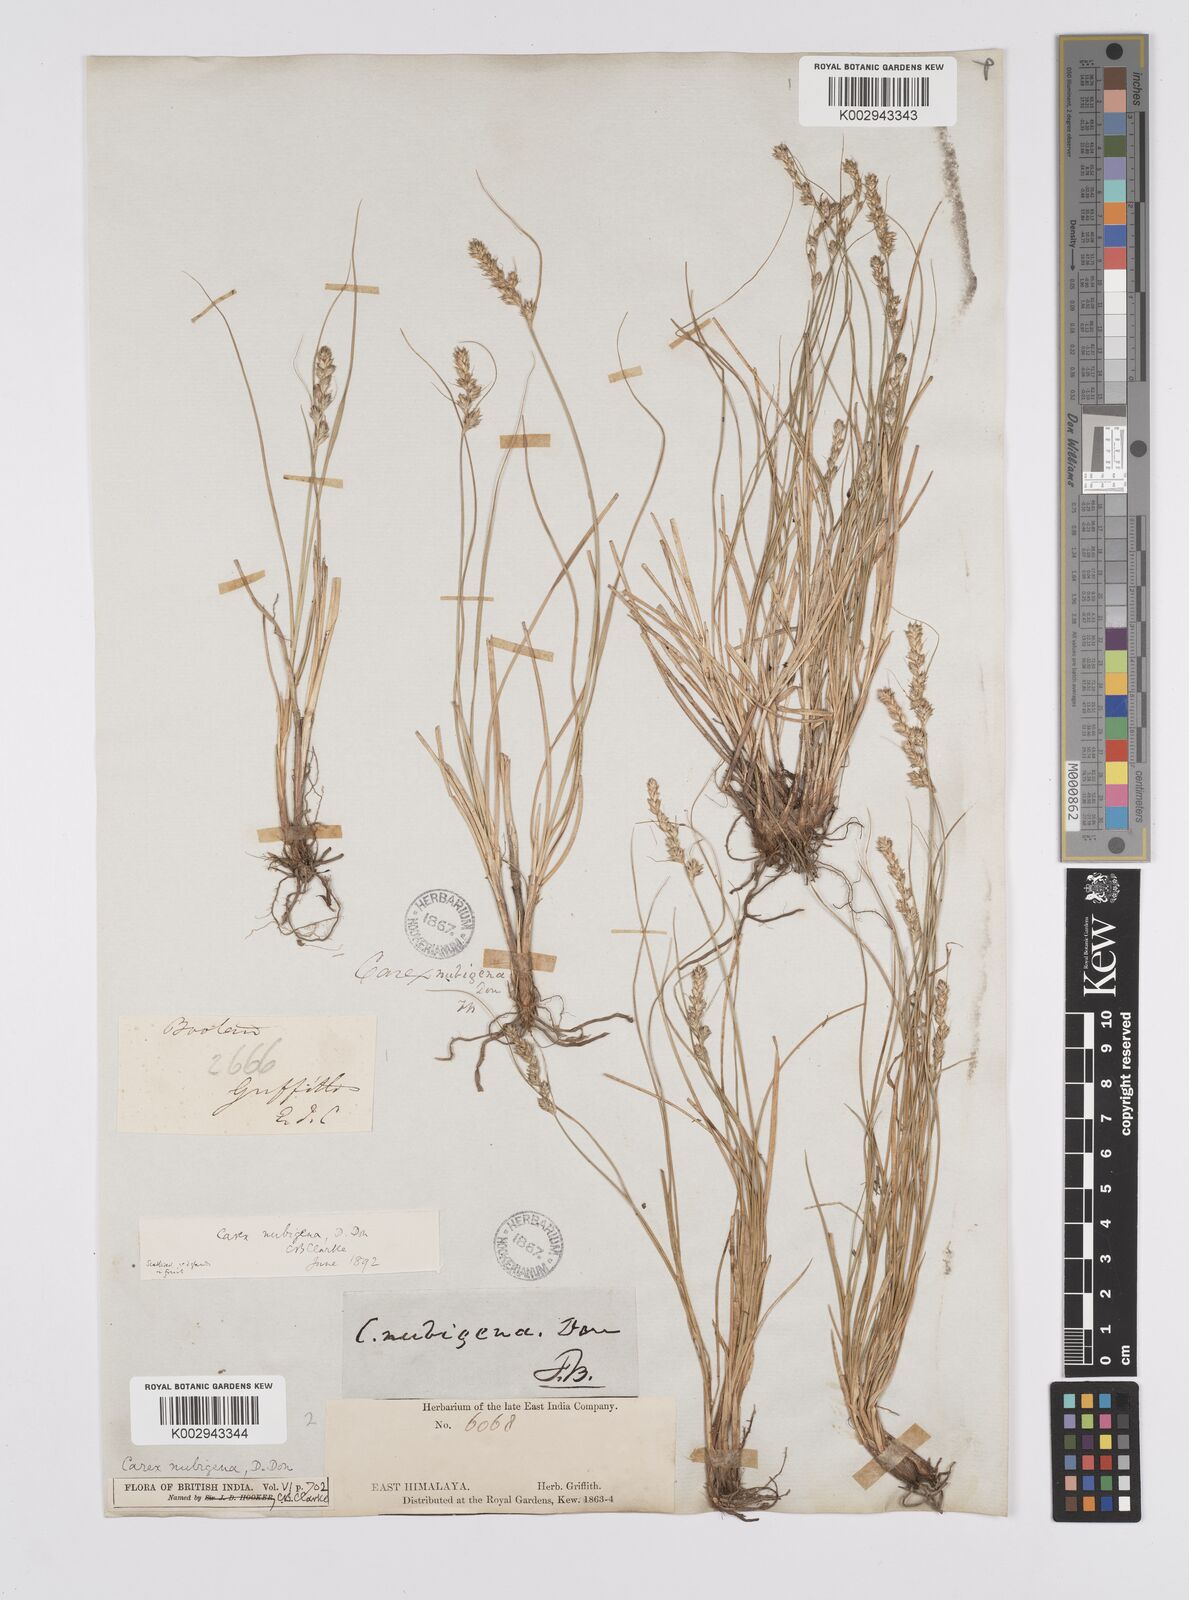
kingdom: Plantae
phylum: Tracheophyta
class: Liliopsida
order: Poales
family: Cyperaceae
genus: Carex
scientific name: Carex nubigena
